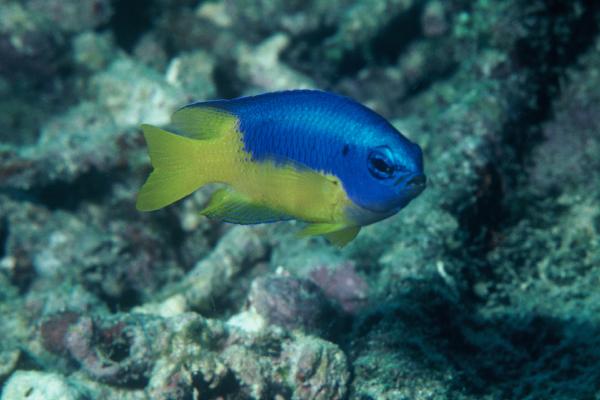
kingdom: Animalia
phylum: Chordata
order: Perciformes
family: Pomacentridae
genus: Pomacentrus
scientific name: Pomacentrus coelestis
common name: Neon damsel
